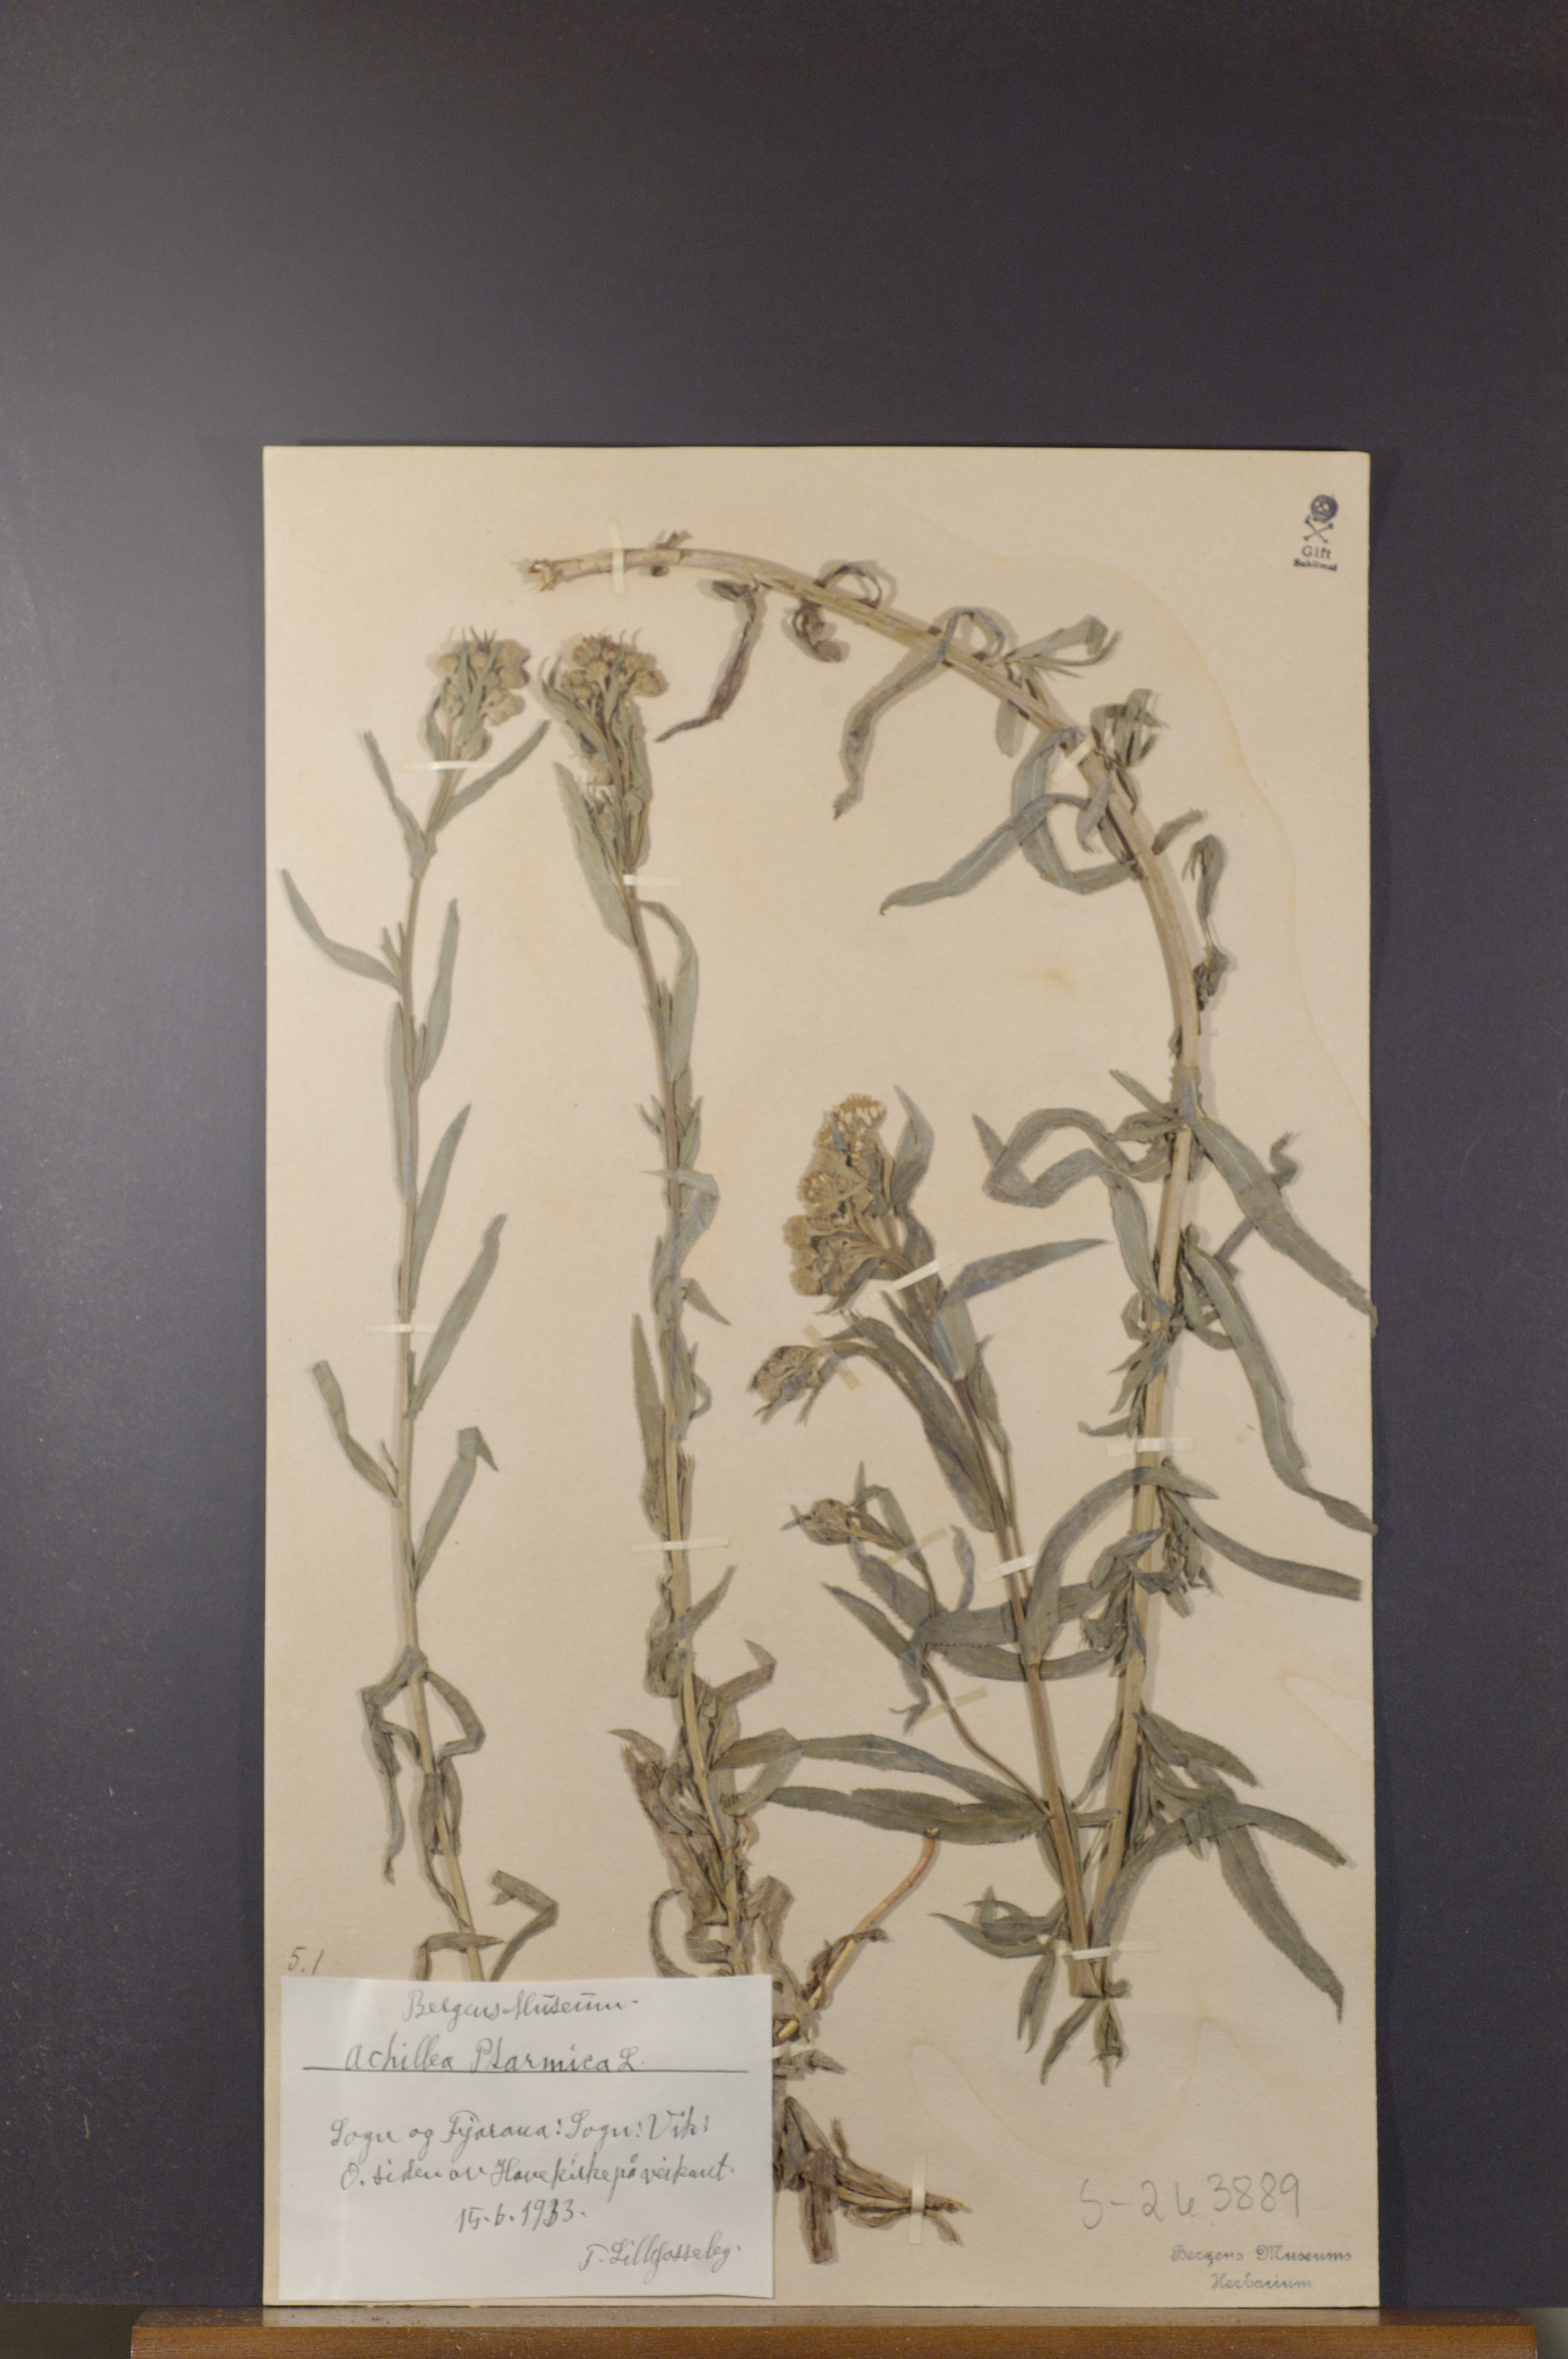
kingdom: Plantae
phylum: Tracheophyta
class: Magnoliopsida
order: Asterales
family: Asteraceae
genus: Achillea
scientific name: Achillea ptarmica
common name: Sneezeweed
